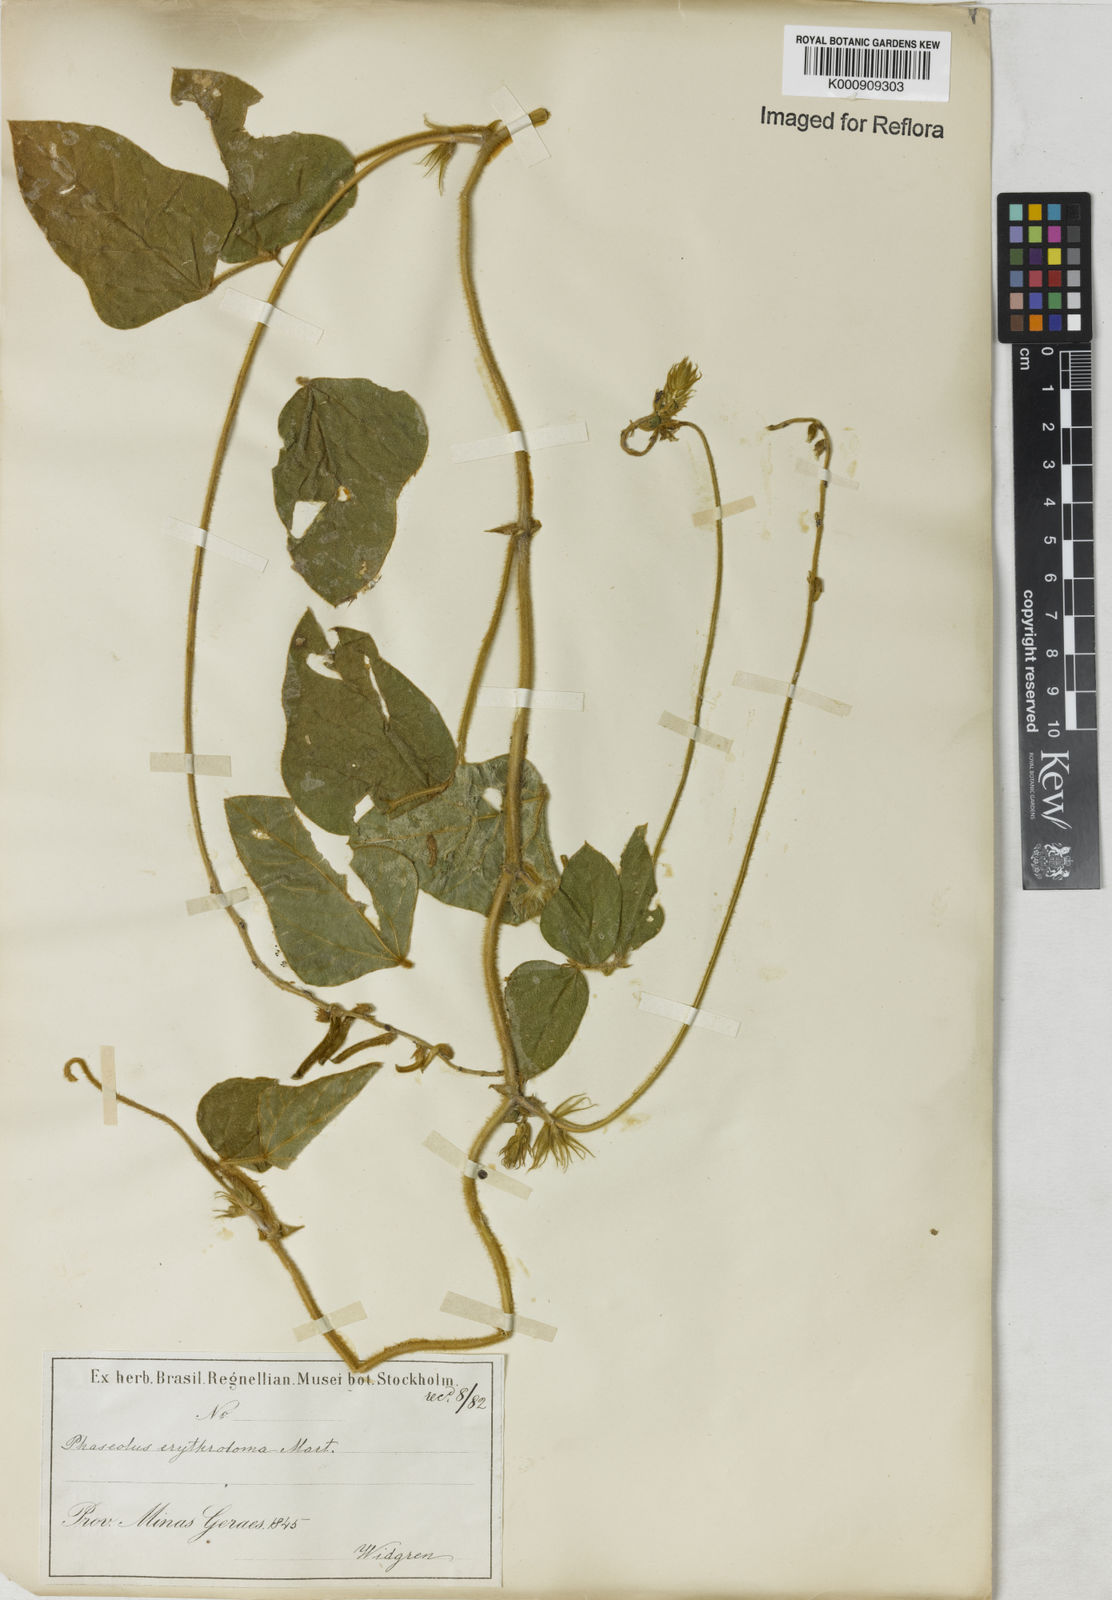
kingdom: Plantae
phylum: Tracheophyta
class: Magnoliopsida
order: Fabales
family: Fabaceae
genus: Macroptilium
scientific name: Macroptilium erythroloma
